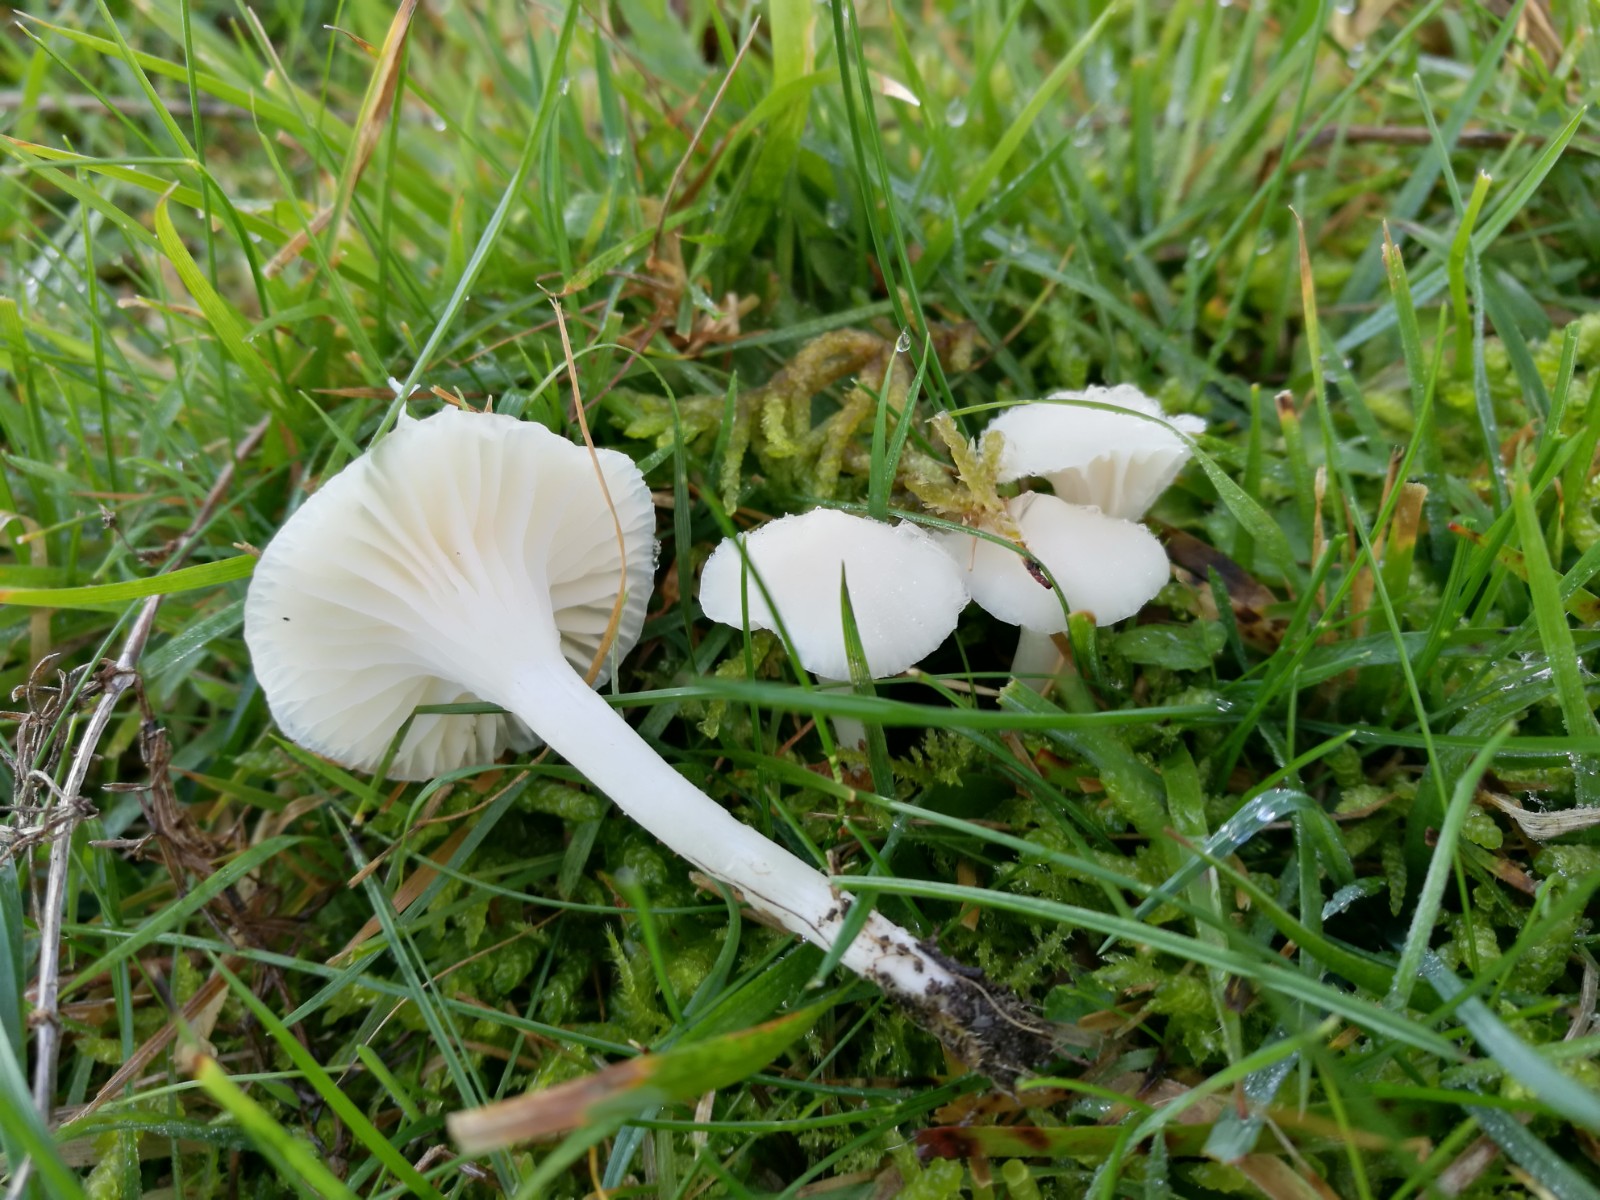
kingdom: Fungi
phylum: Basidiomycota
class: Agaricomycetes
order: Agaricales
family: Hygrophoraceae
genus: Cuphophyllus
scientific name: Cuphophyllus virgineus
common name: snehvid vokshat
